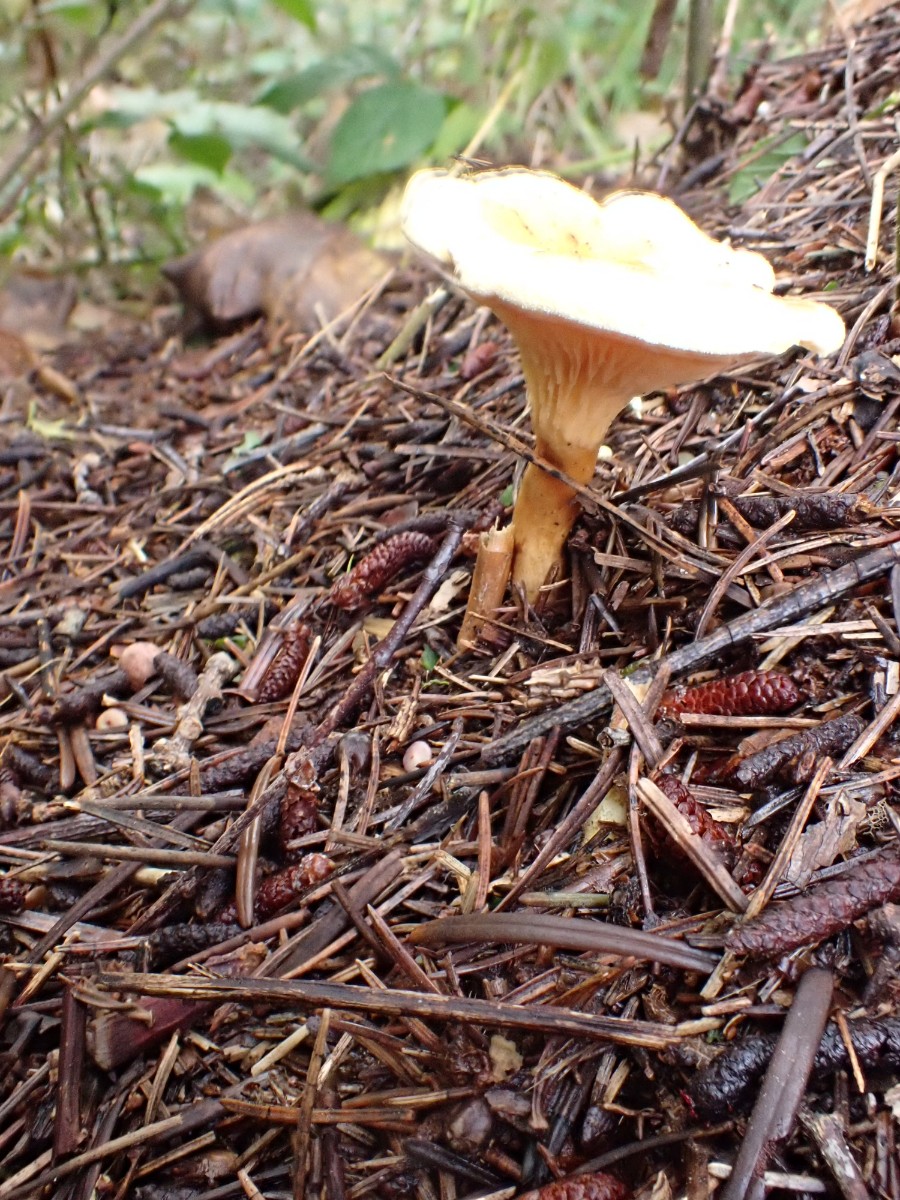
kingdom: Fungi
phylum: Basidiomycota
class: Agaricomycetes
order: Boletales
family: Hygrophoropsidaceae
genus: Hygrophoropsis
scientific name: Hygrophoropsis aurantiaca
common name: almindelig orangekantarel
